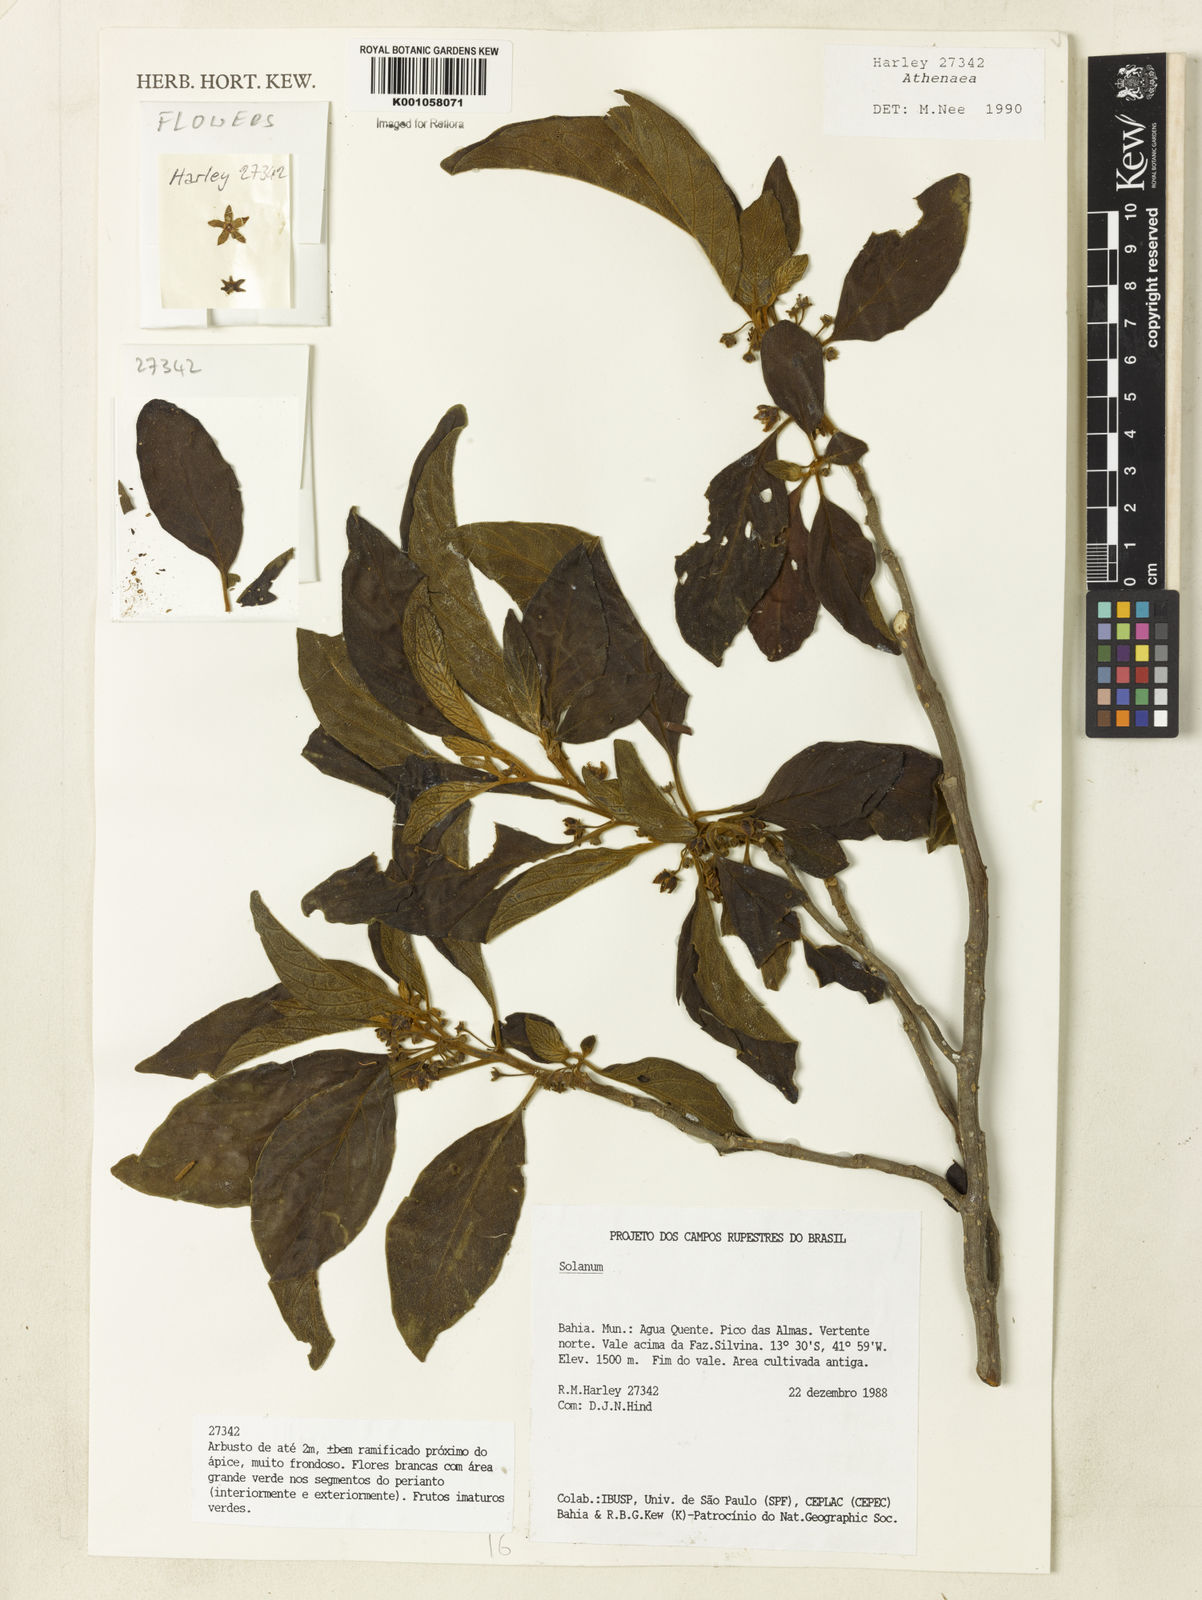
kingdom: Plantae
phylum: Tracheophyta
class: Magnoliopsida
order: Solanales
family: Solanaceae
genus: Solanum
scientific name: Solanum
